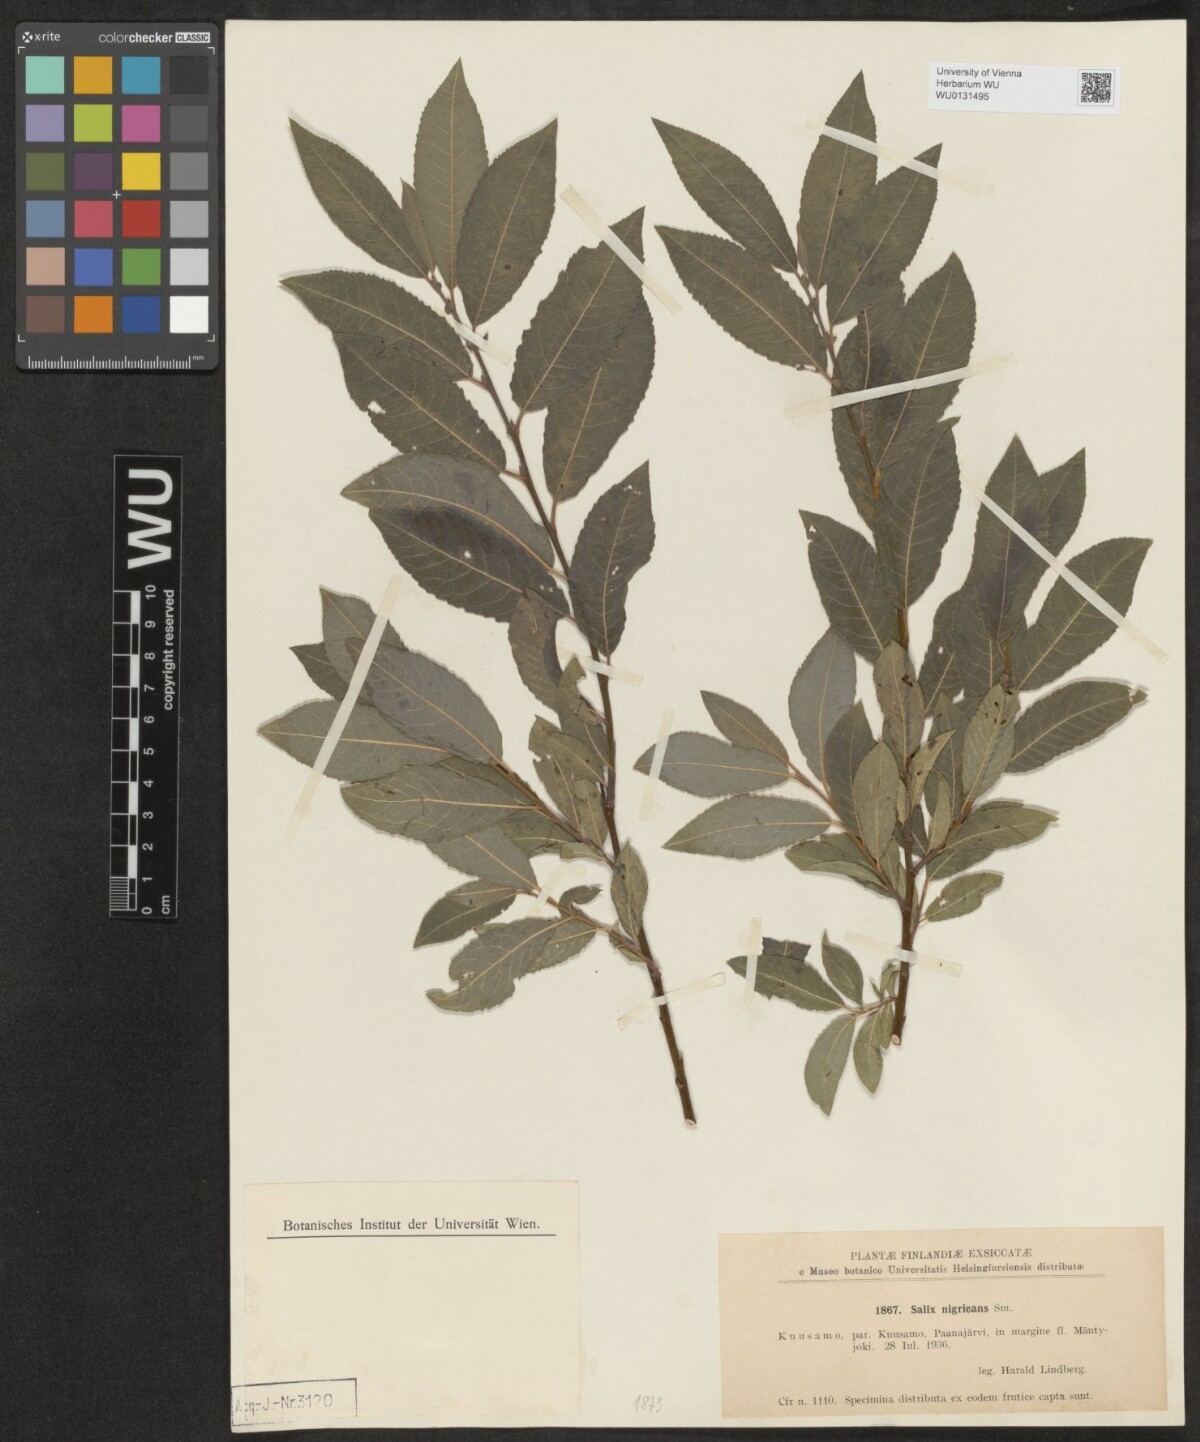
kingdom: Plantae
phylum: Tracheophyta
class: Magnoliopsida
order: Malpighiales
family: Salicaceae
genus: Salix
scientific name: Salix myrsinifolia
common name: Dark-leaved willow
